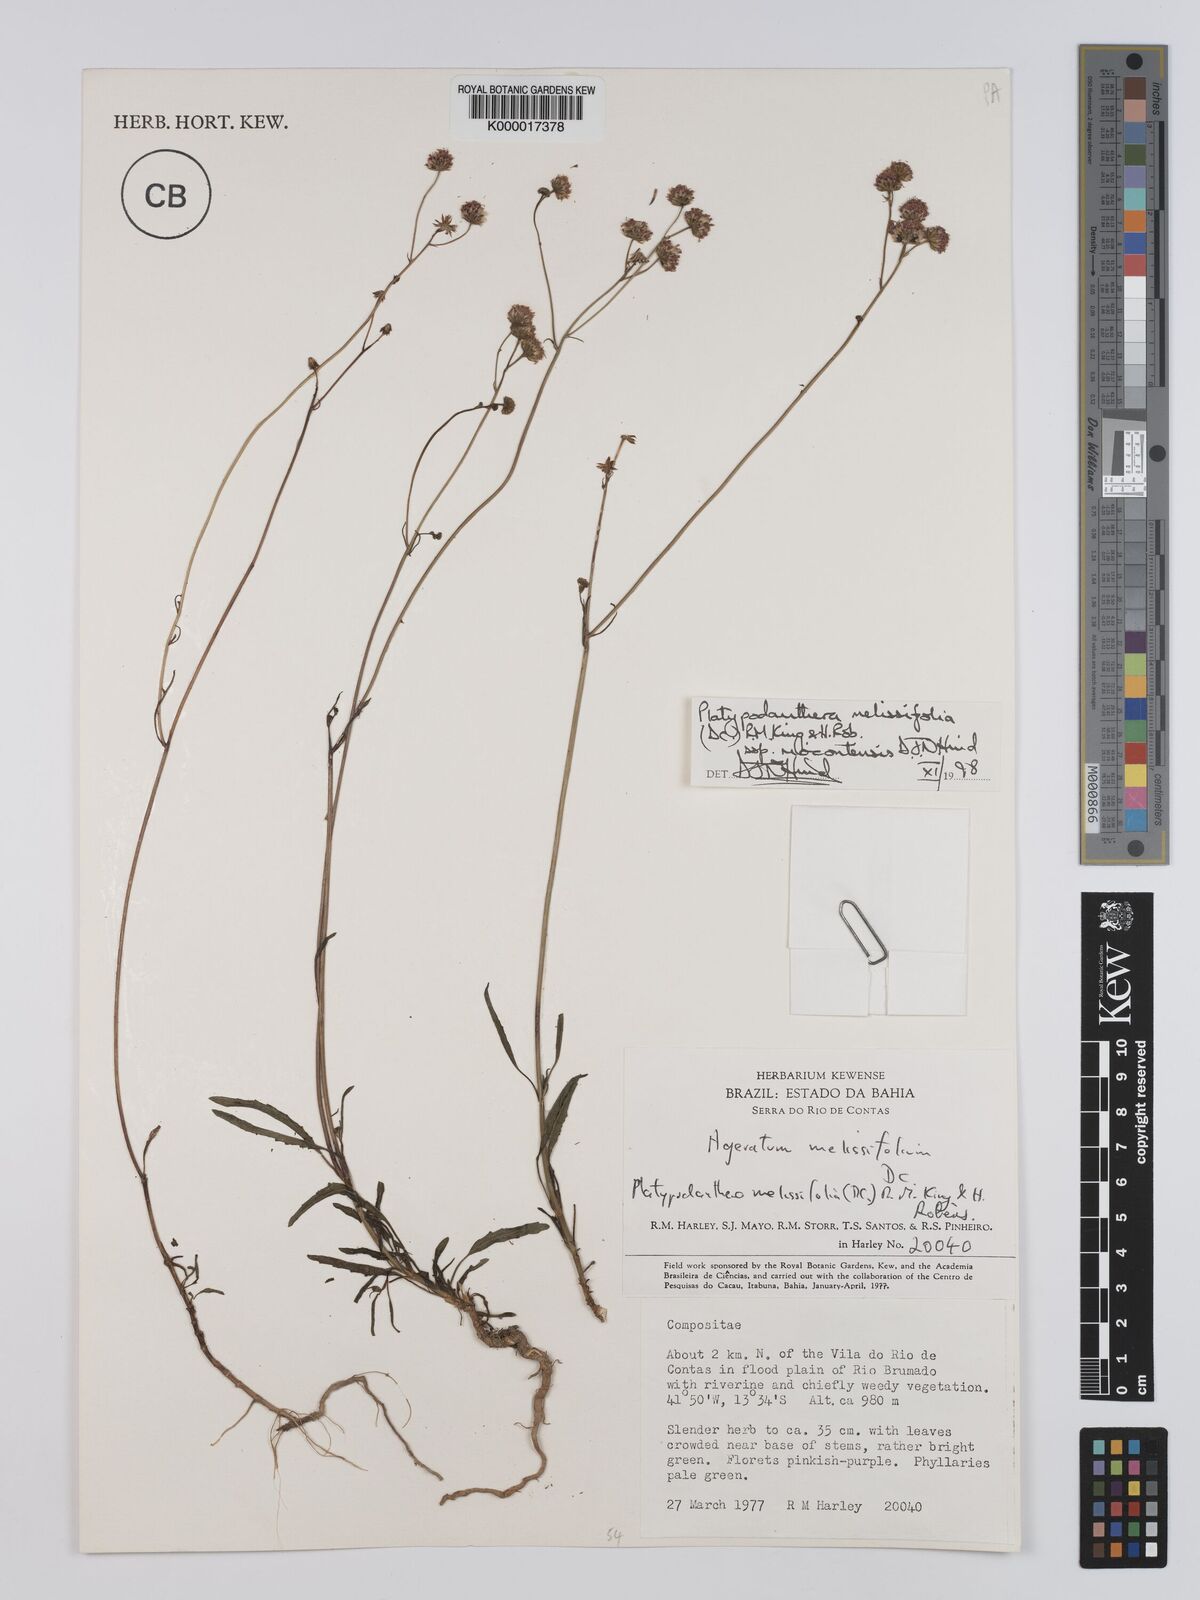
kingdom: Plantae
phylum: Tracheophyta
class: Magnoliopsida
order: Asterales
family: Asteraceae
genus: Platypodanthera
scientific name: Platypodanthera melissifolia
